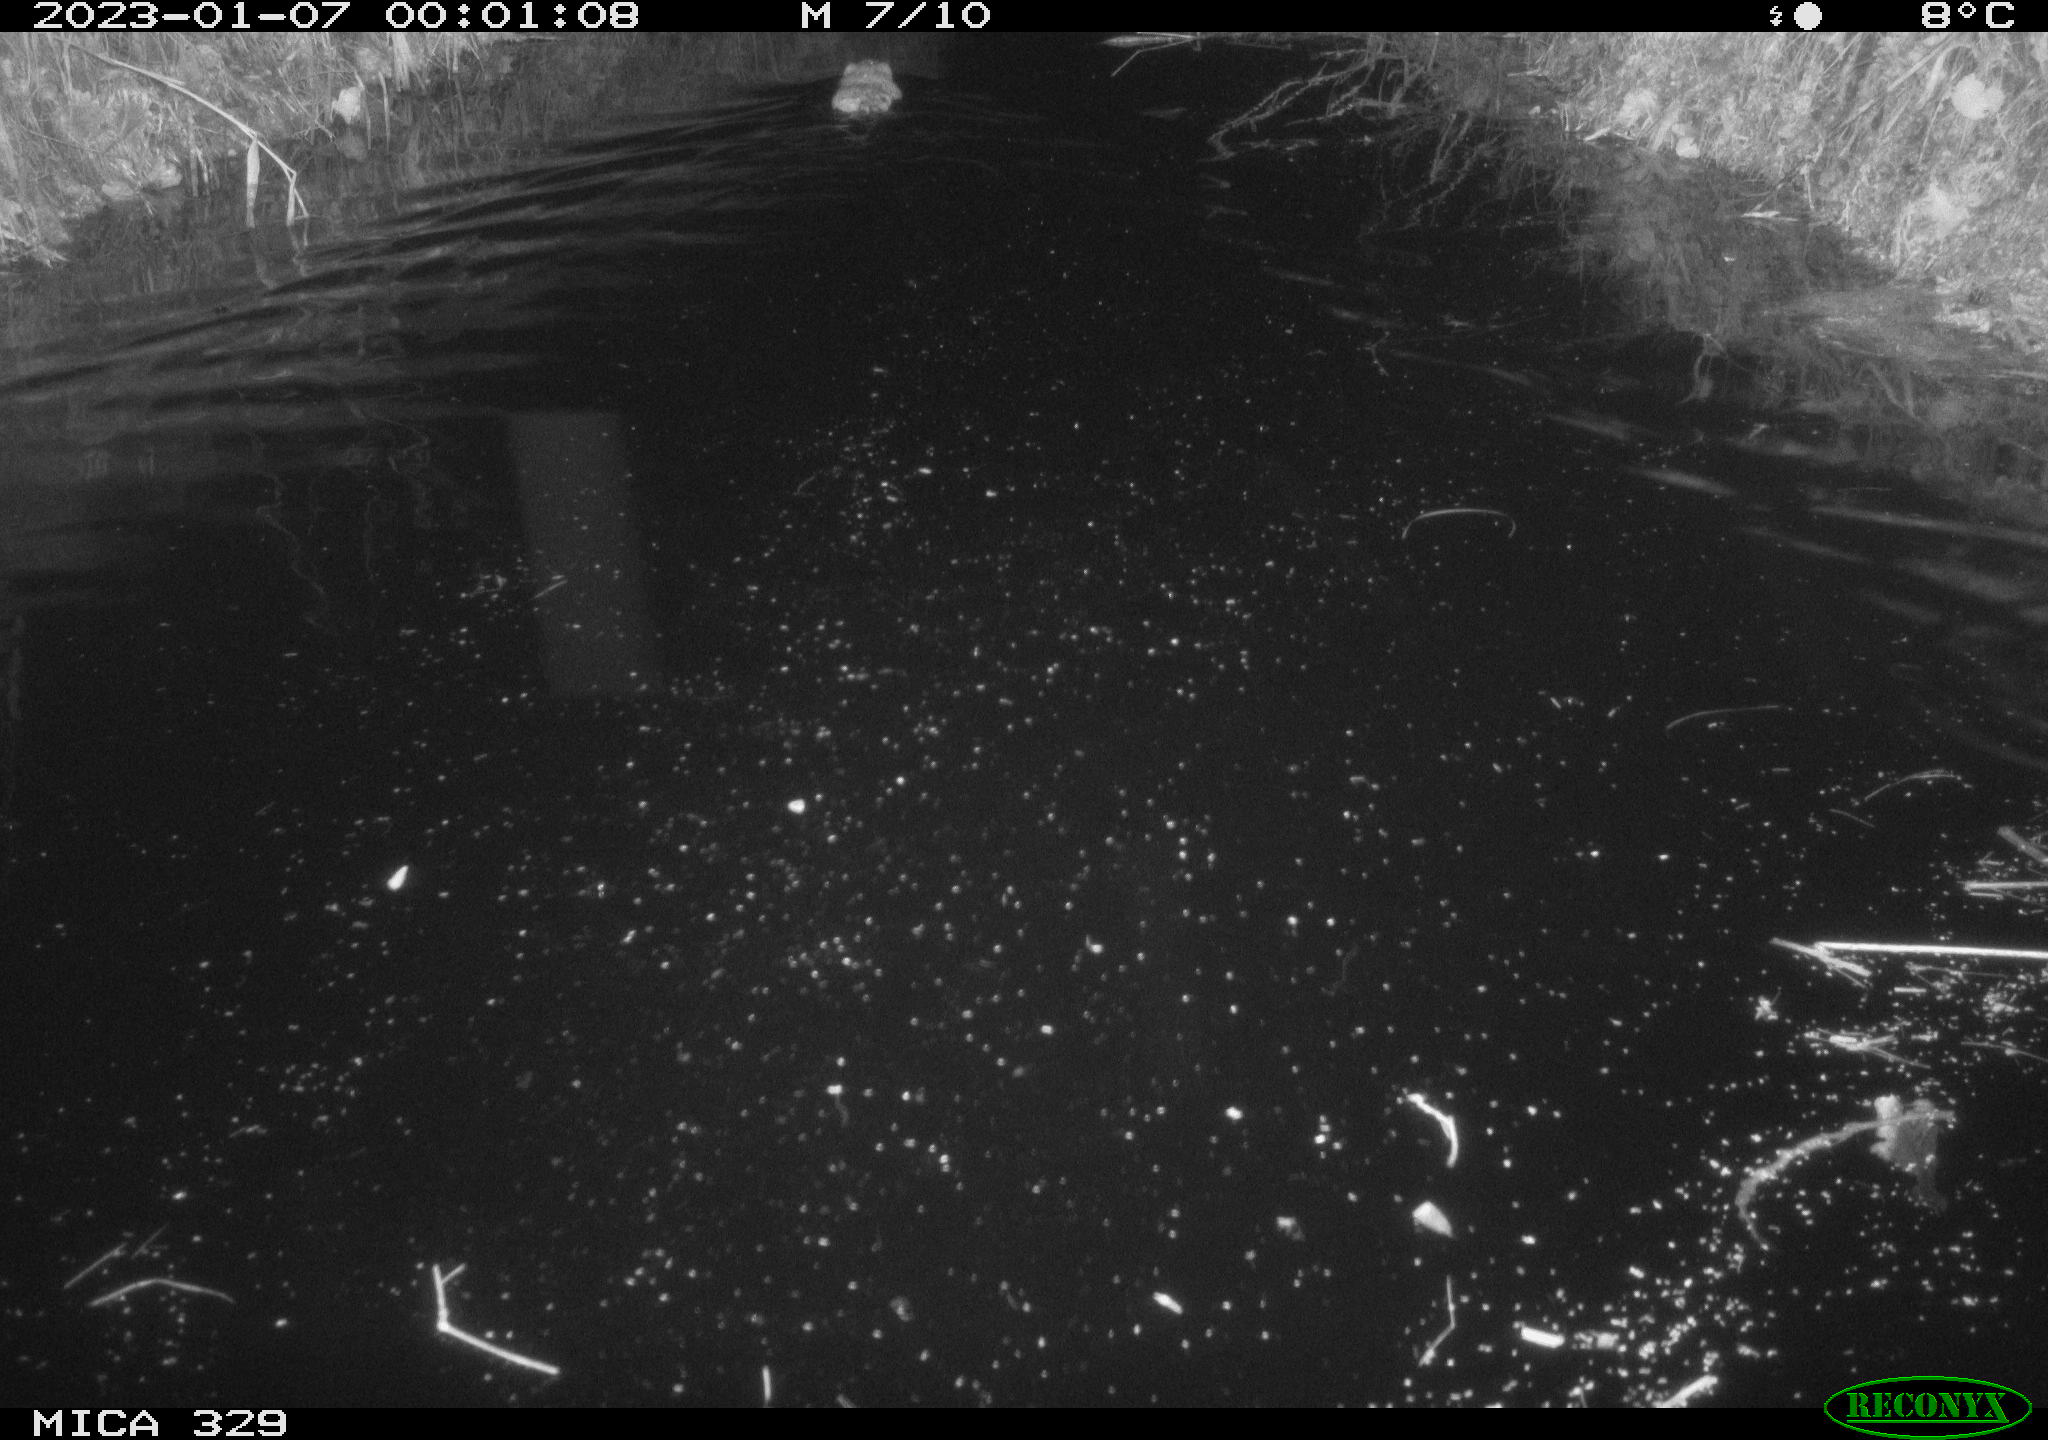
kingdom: Animalia
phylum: Chordata
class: Mammalia
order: Rodentia
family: Cricetidae
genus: Ondatra
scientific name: Ondatra zibethicus
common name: Muskrat
